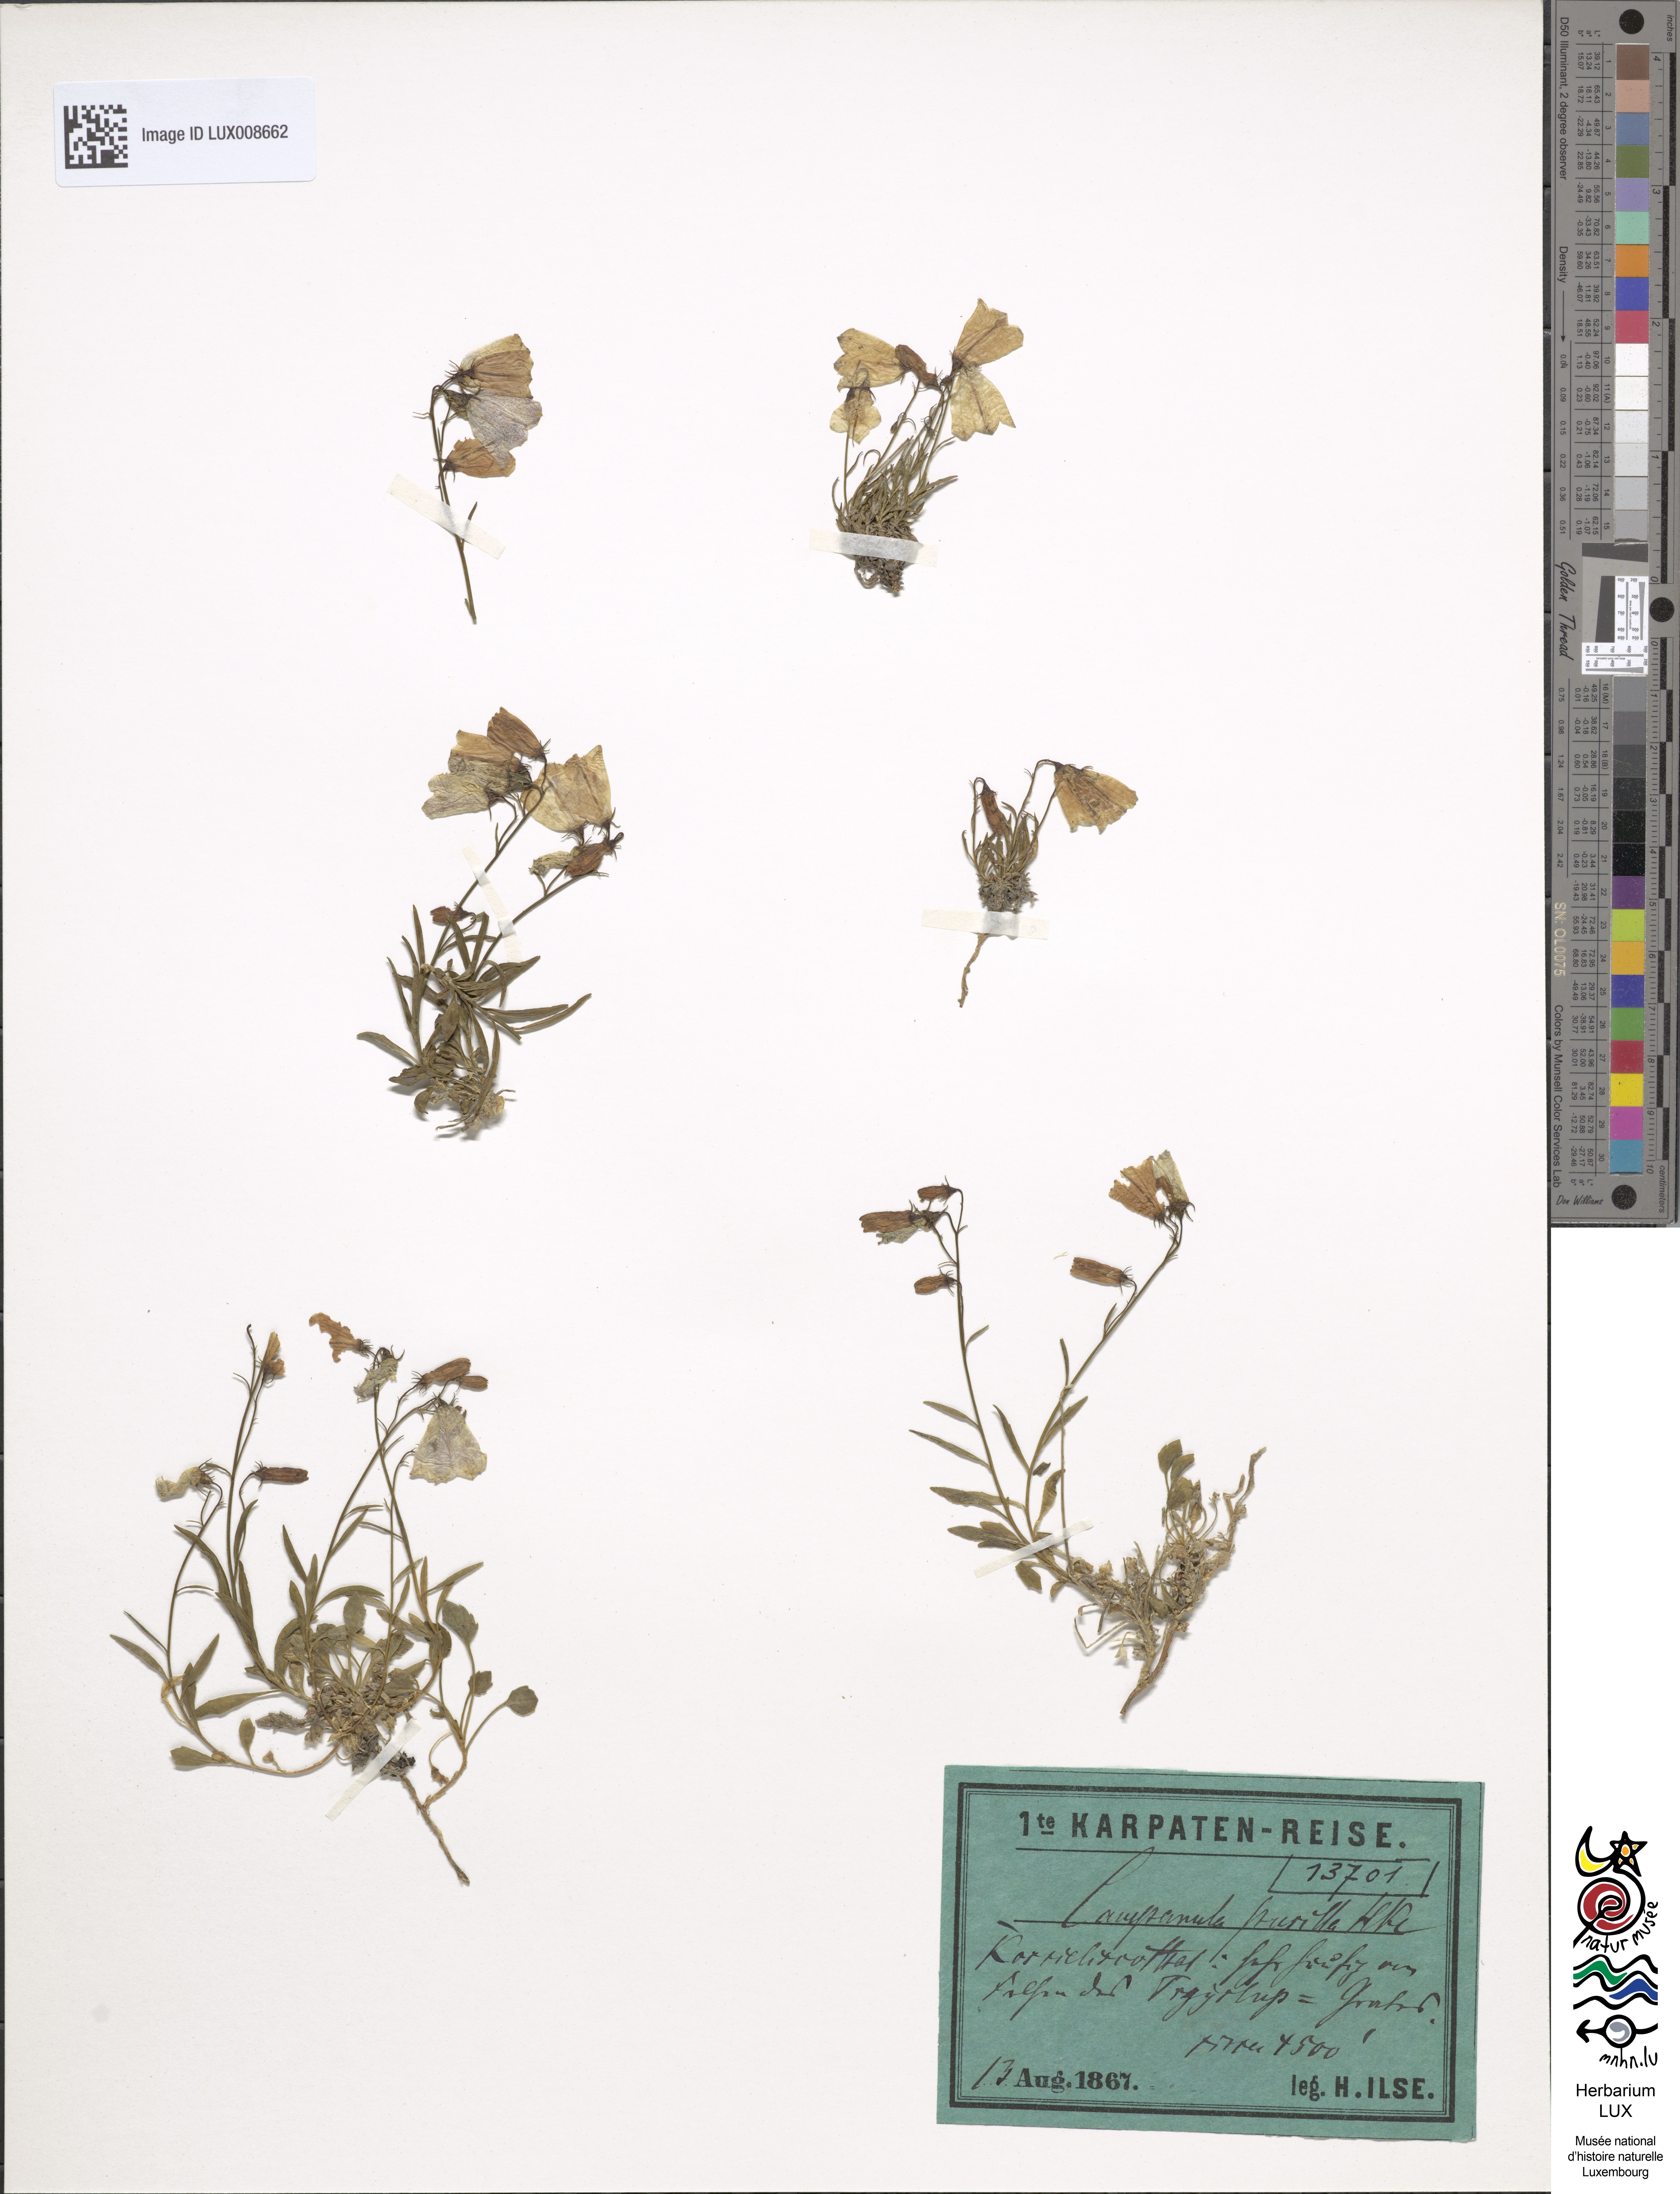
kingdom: Plantae
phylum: Tracheophyta
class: Magnoliopsida
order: Asterales
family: Campanulaceae
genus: Campanula
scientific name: Campanula cochleariifolia
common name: Fairies'-thimbles
